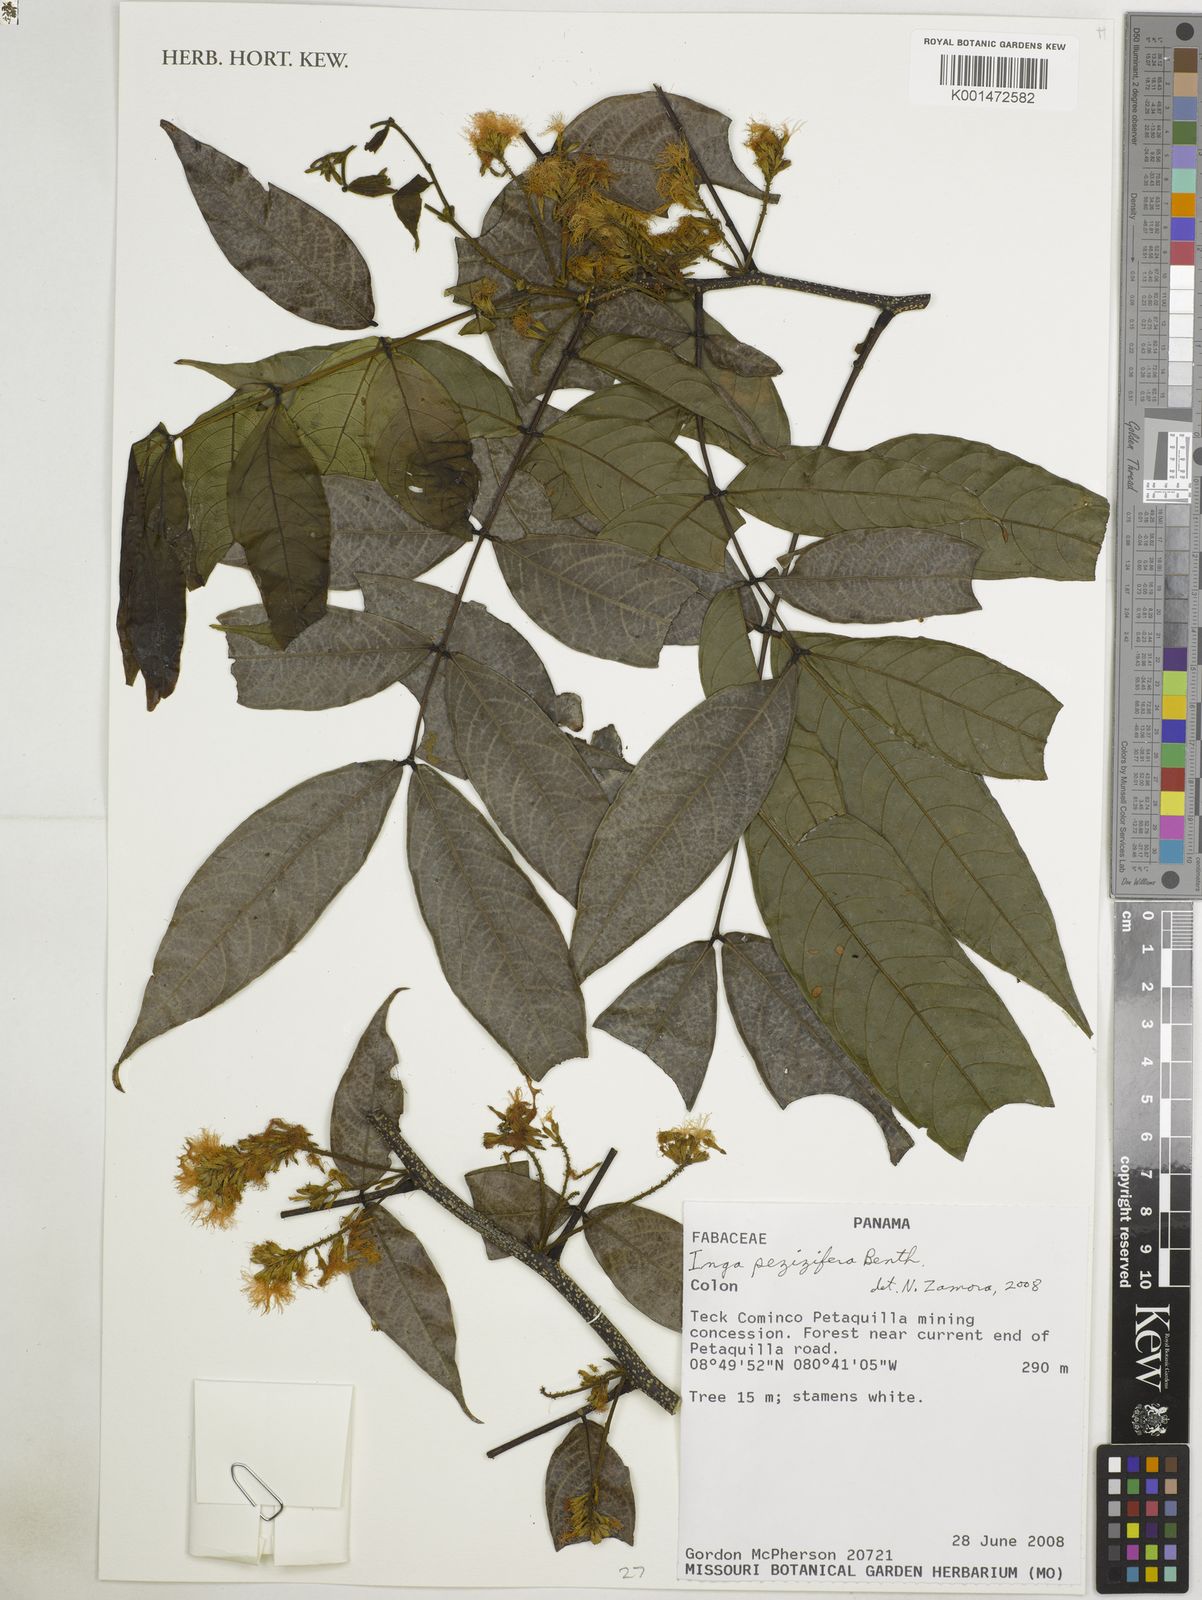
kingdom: Plantae
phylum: Tracheophyta
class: Magnoliopsida
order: Fabales
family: Fabaceae
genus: Inga
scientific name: Inga pezizifera
